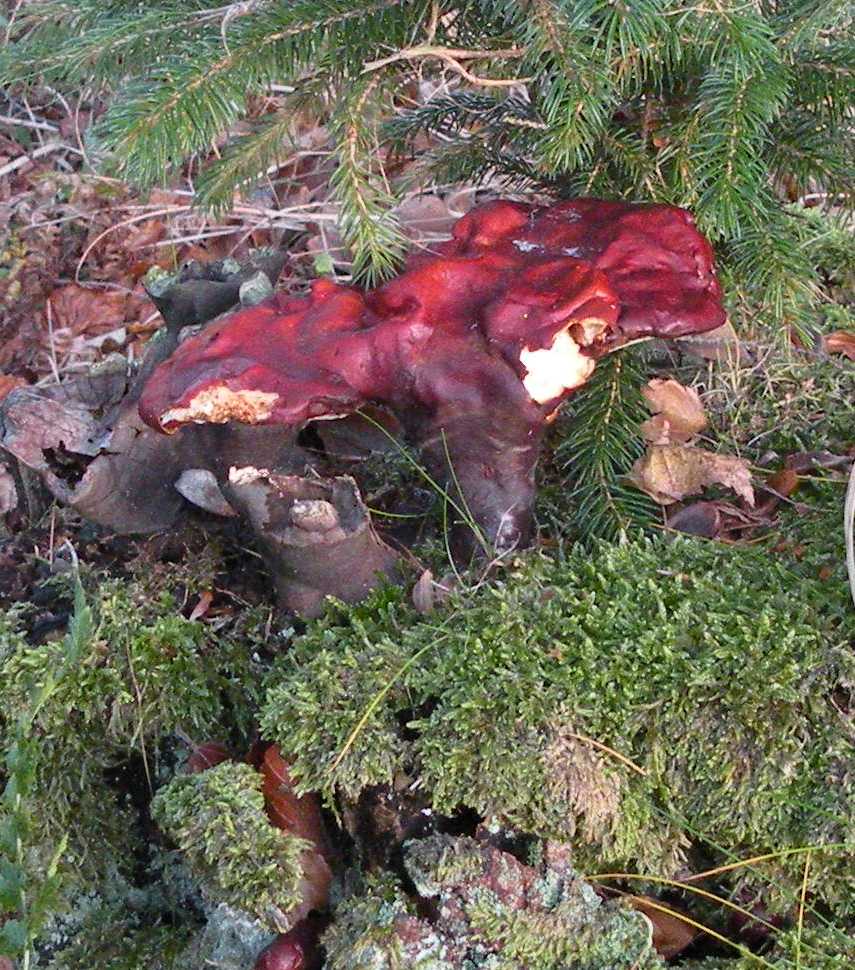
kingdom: Fungi
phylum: Basidiomycota
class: Agaricomycetes
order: Polyporales
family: Polyporaceae
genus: Ganoderma
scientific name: Ganoderma lucidum
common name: skinnende lakporesvamp
